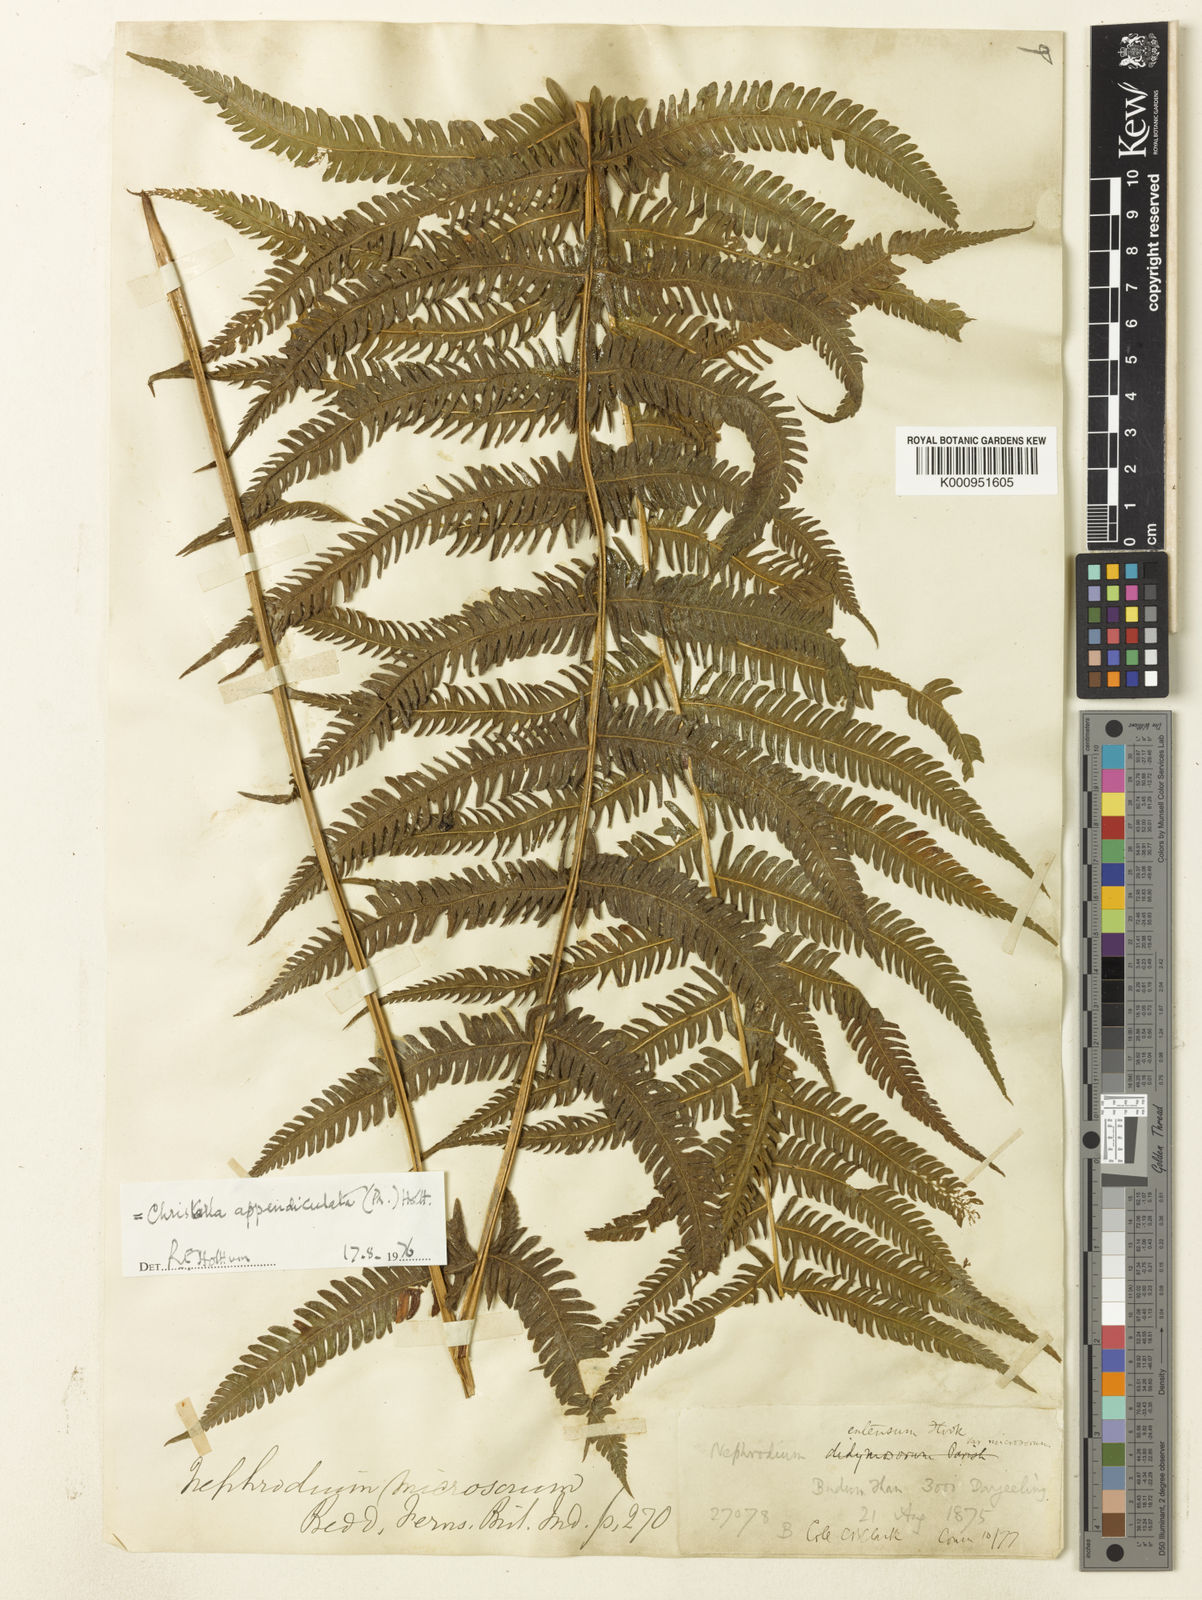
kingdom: Plantae
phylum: Tracheophyta
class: Polypodiopsida
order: Polypodiales
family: Thelypteridaceae
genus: Christella
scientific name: Christella procera
